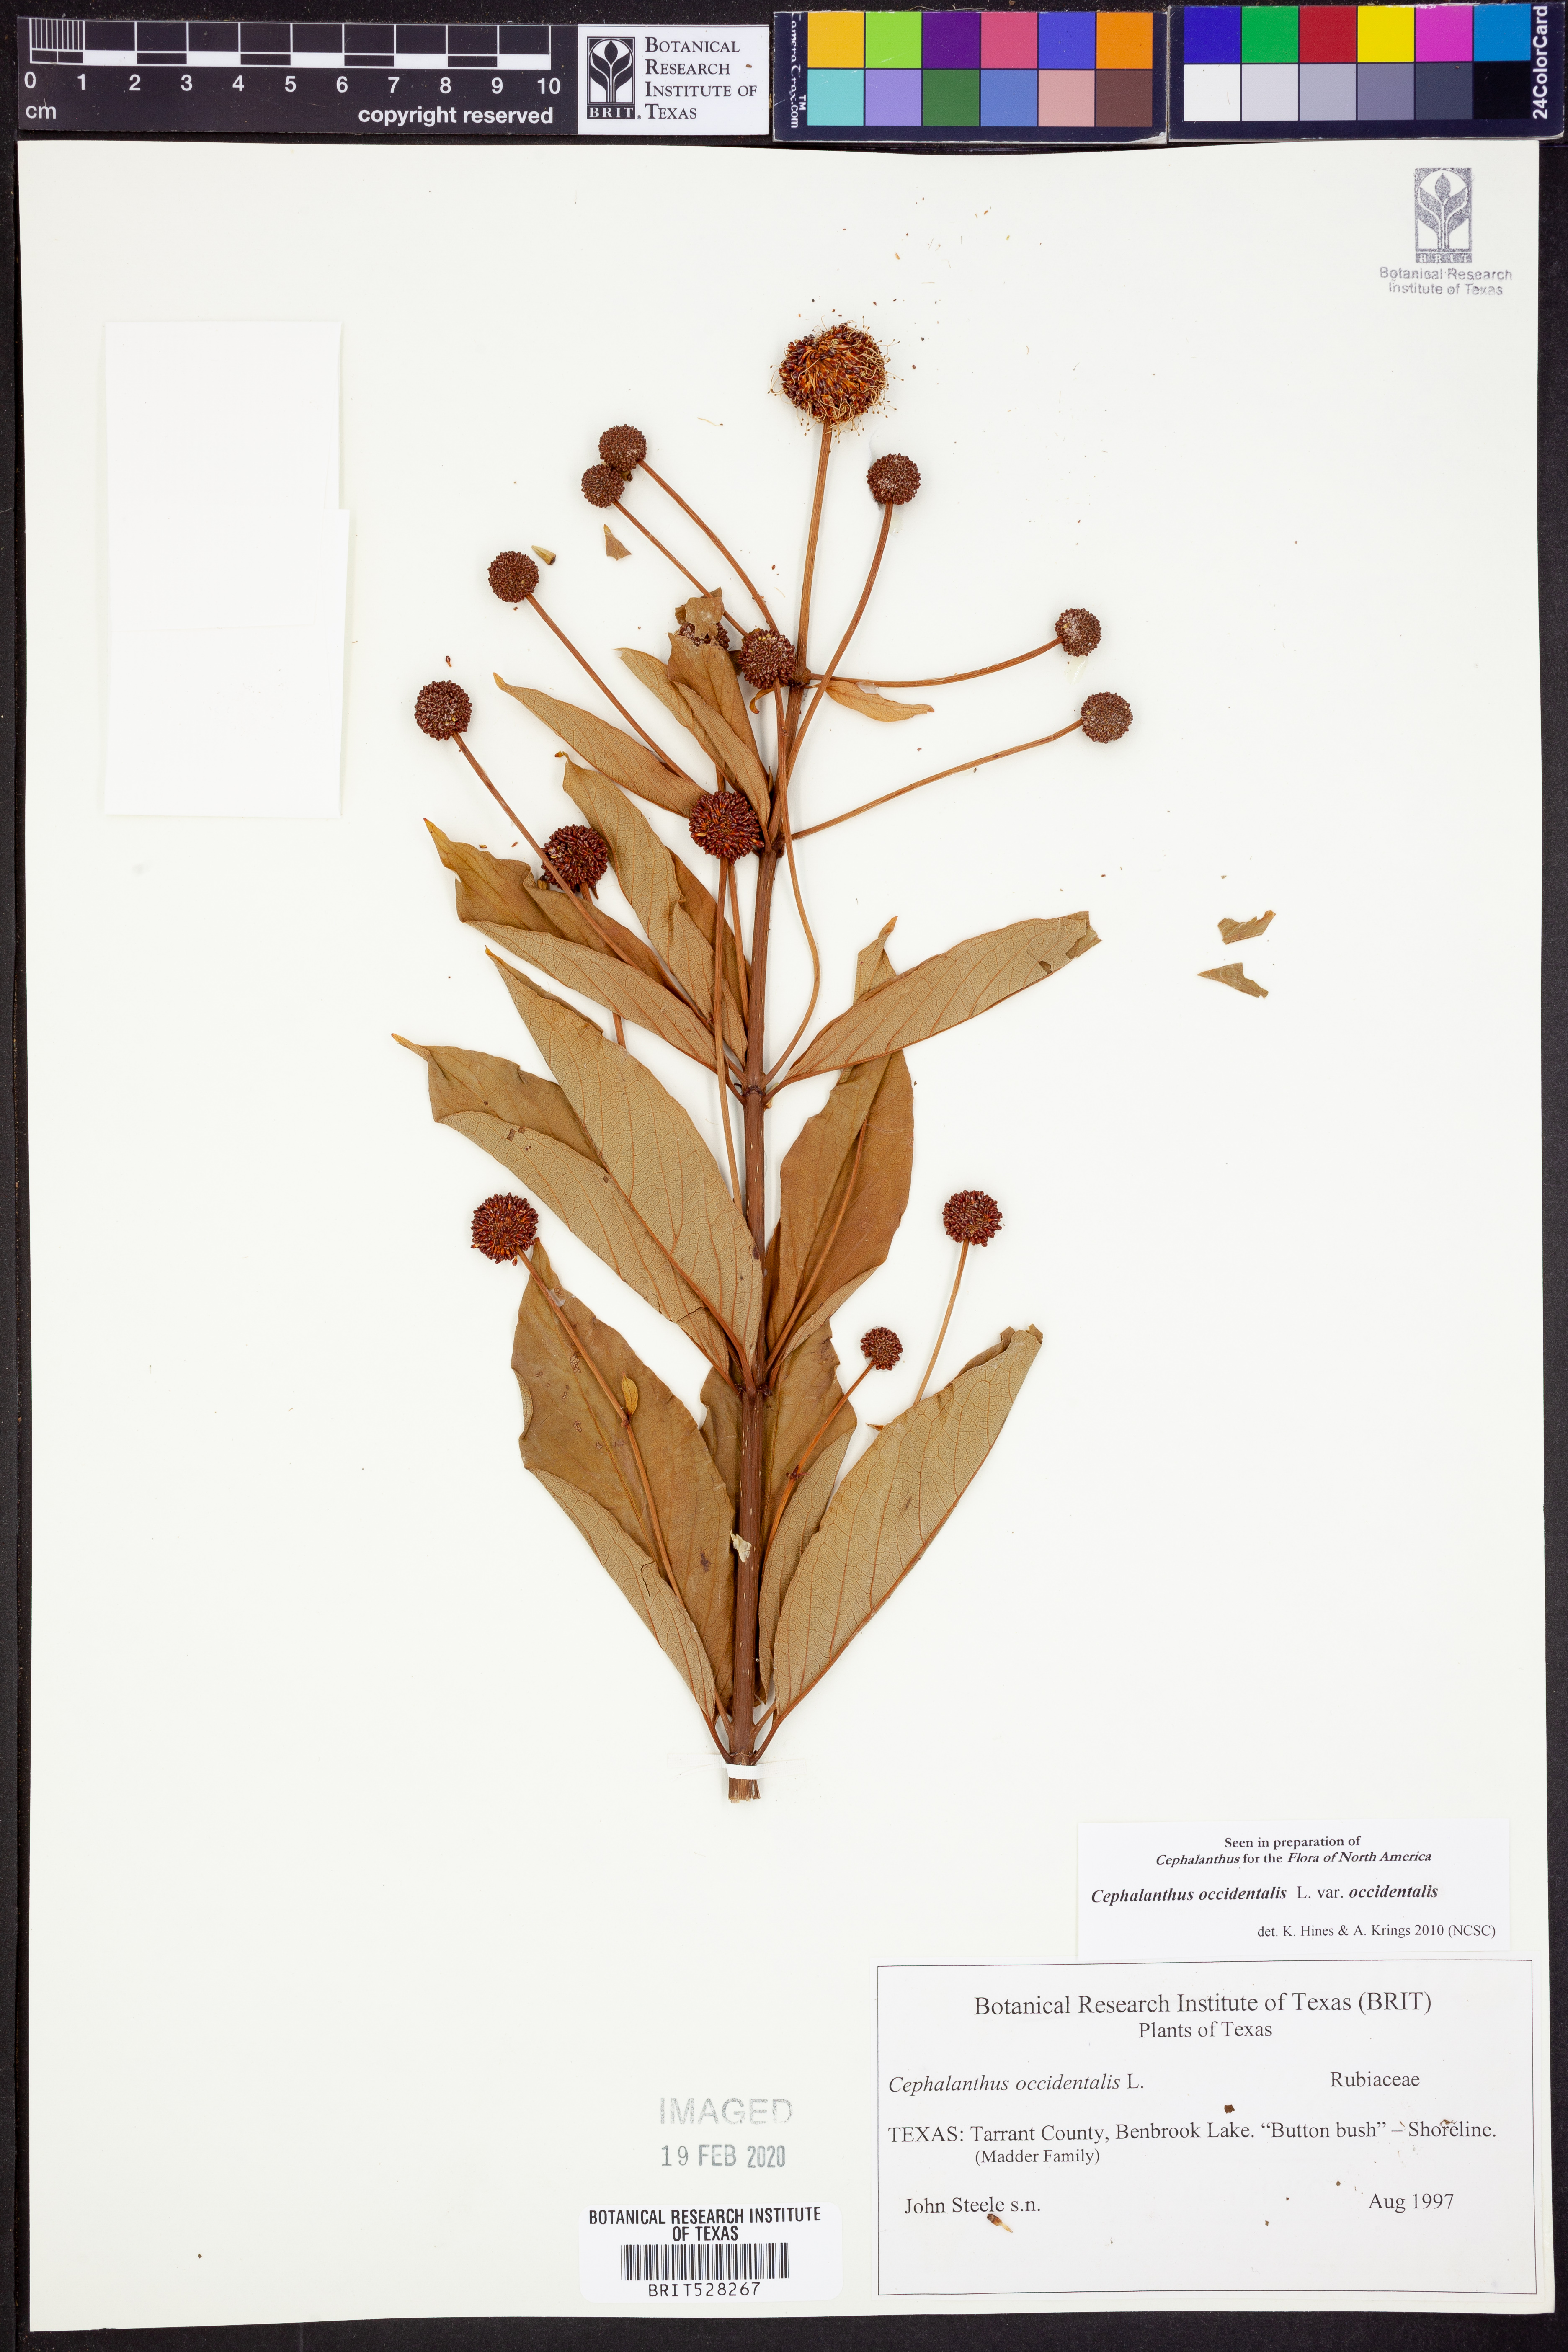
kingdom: Plantae
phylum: Tracheophyta
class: Magnoliopsida
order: Gentianales
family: Rubiaceae
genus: Cephalanthus
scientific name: Cephalanthus occidentalis
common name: Button-willow
